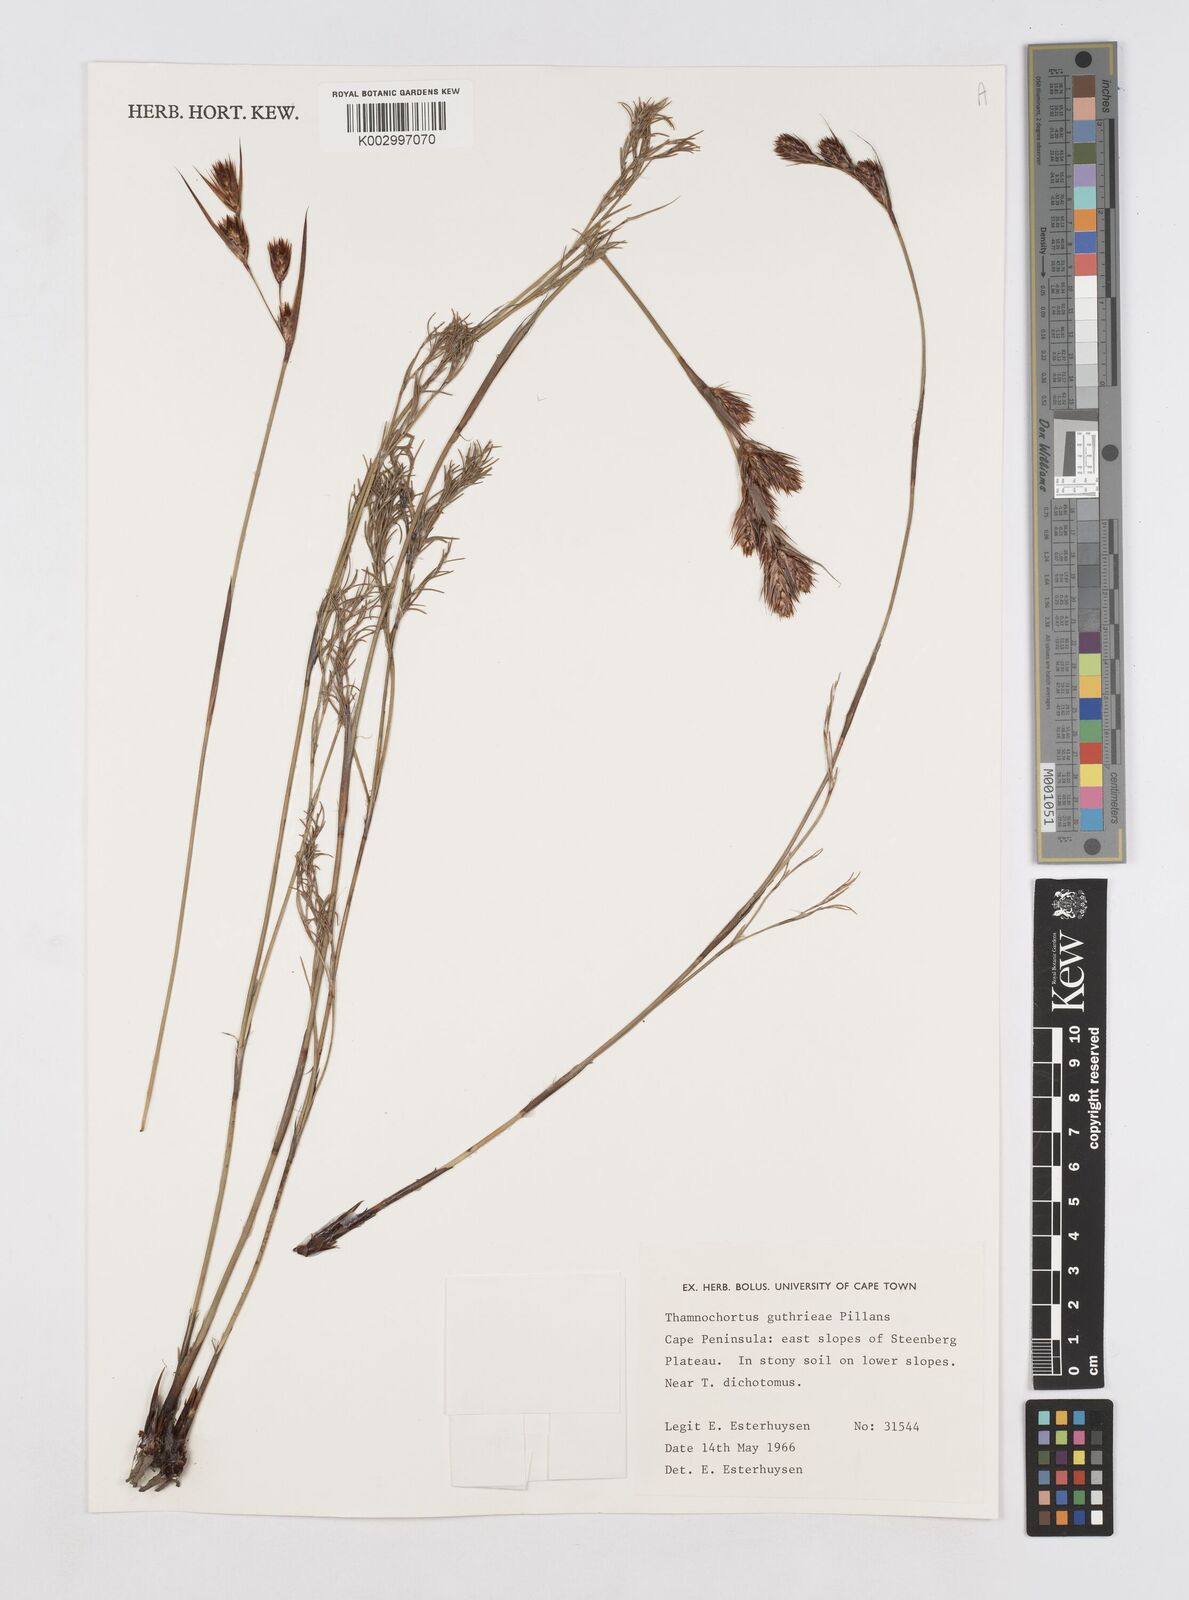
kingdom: Plantae
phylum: Tracheophyta
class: Liliopsida
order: Poales
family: Restionaceae
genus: Thamnochortus
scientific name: Thamnochortus guthrieae
